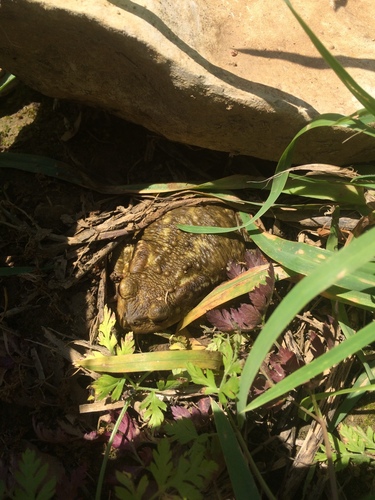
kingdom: Animalia
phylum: Chordata
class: Amphibia
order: Anura
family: Bufonidae
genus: Bufo
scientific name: Bufo spinosus
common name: Western common toad
